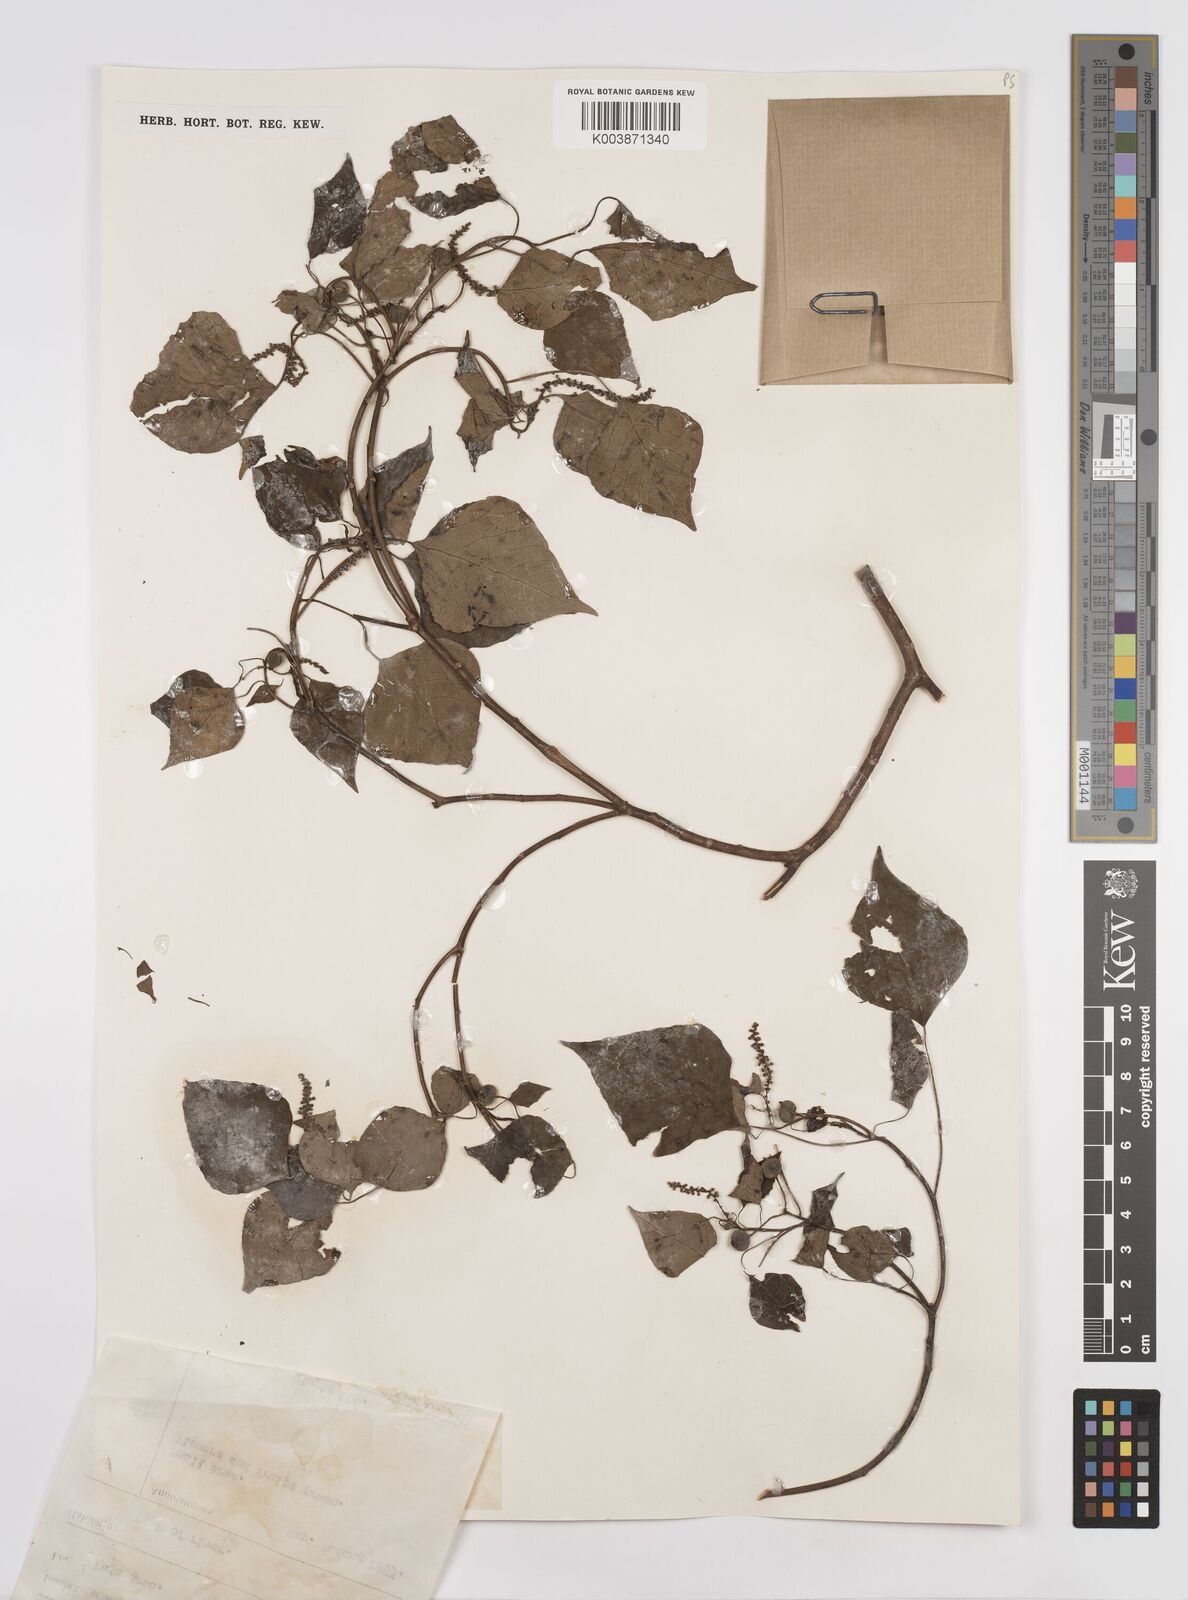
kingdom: Plantae
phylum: Tracheophyta
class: Magnoliopsida
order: Malpighiales
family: Euphorbiaceae
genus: Homalanthus
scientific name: Homalanthus populneus
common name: Spurge
